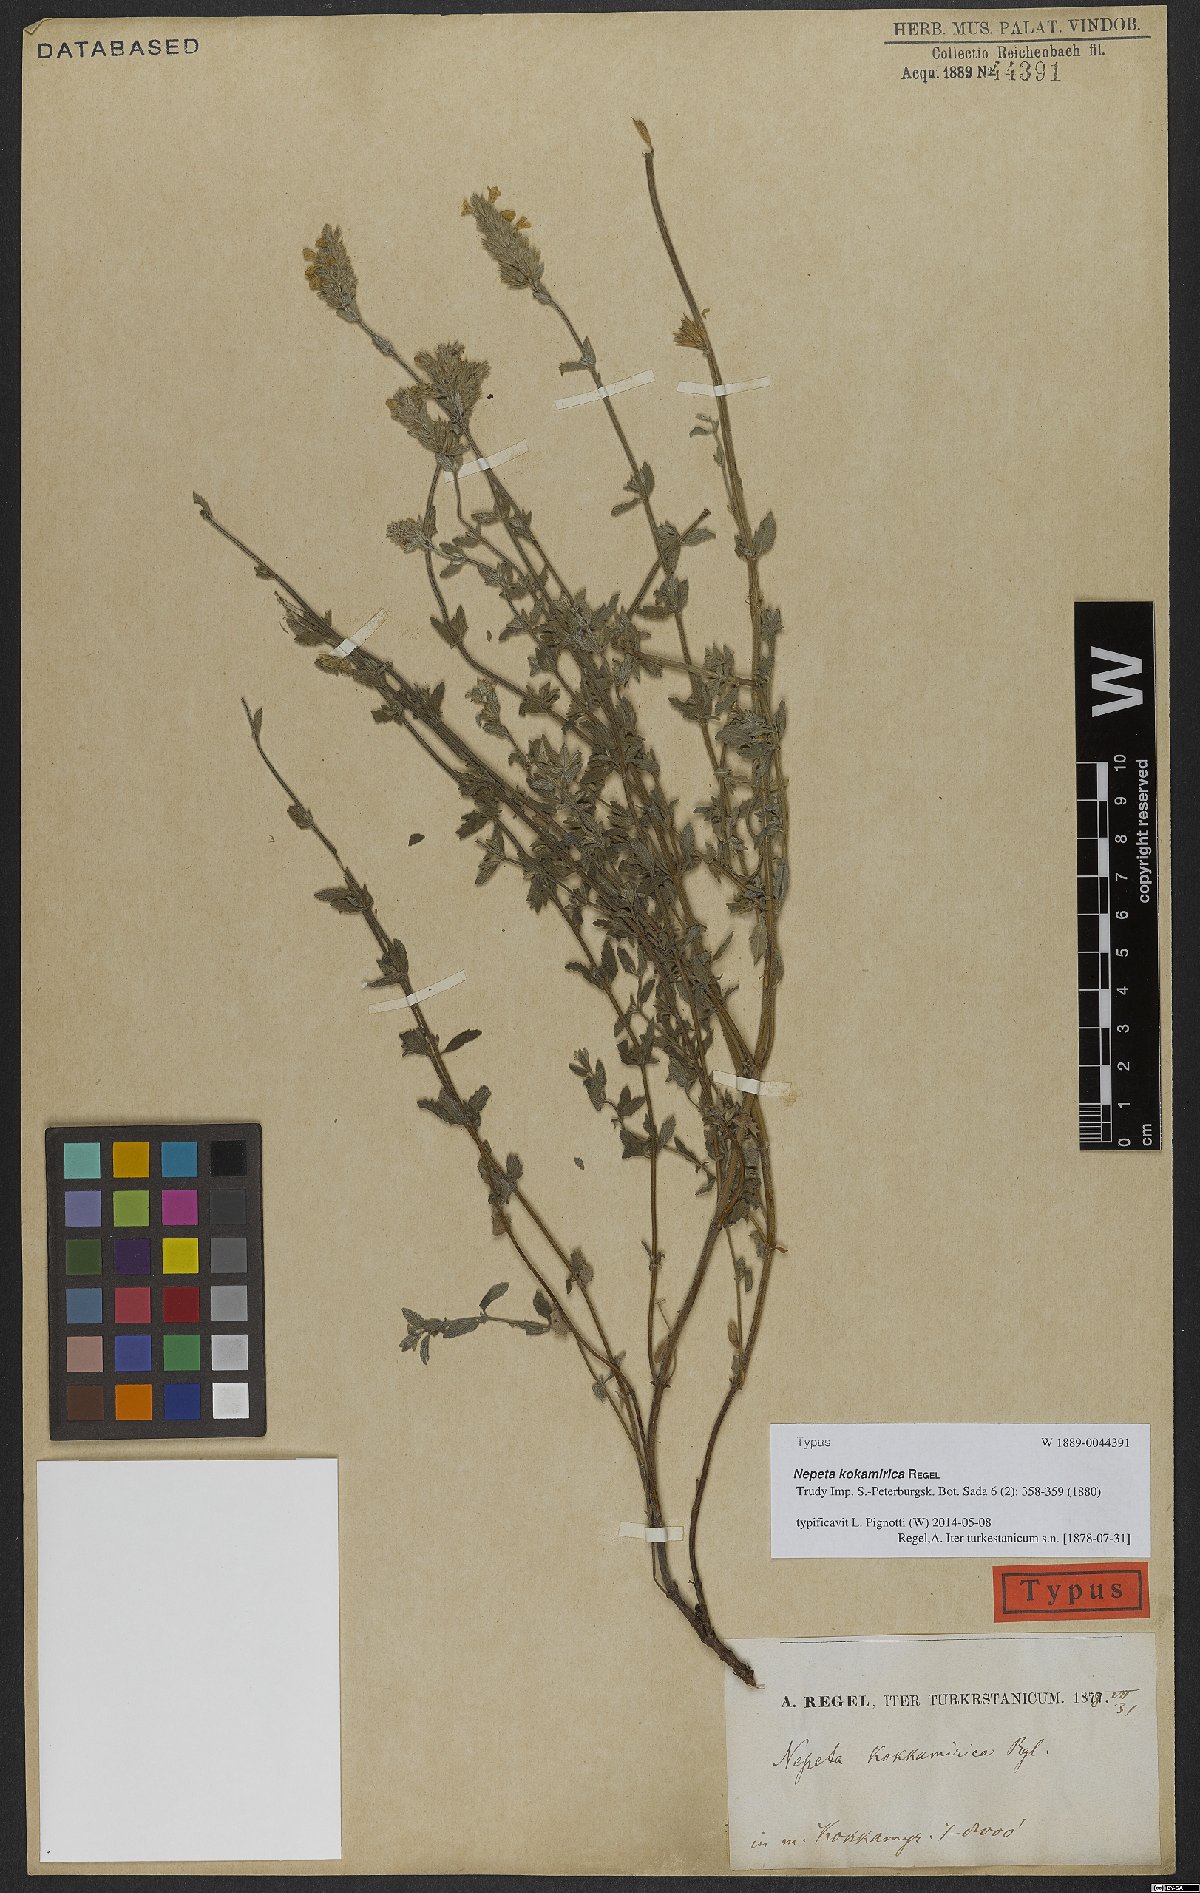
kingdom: Plantae
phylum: Tracheophyta
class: Magnoliopsida
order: Lamiales
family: Lamiaceae
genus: Nepeta
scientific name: Nepeta kokamirica
